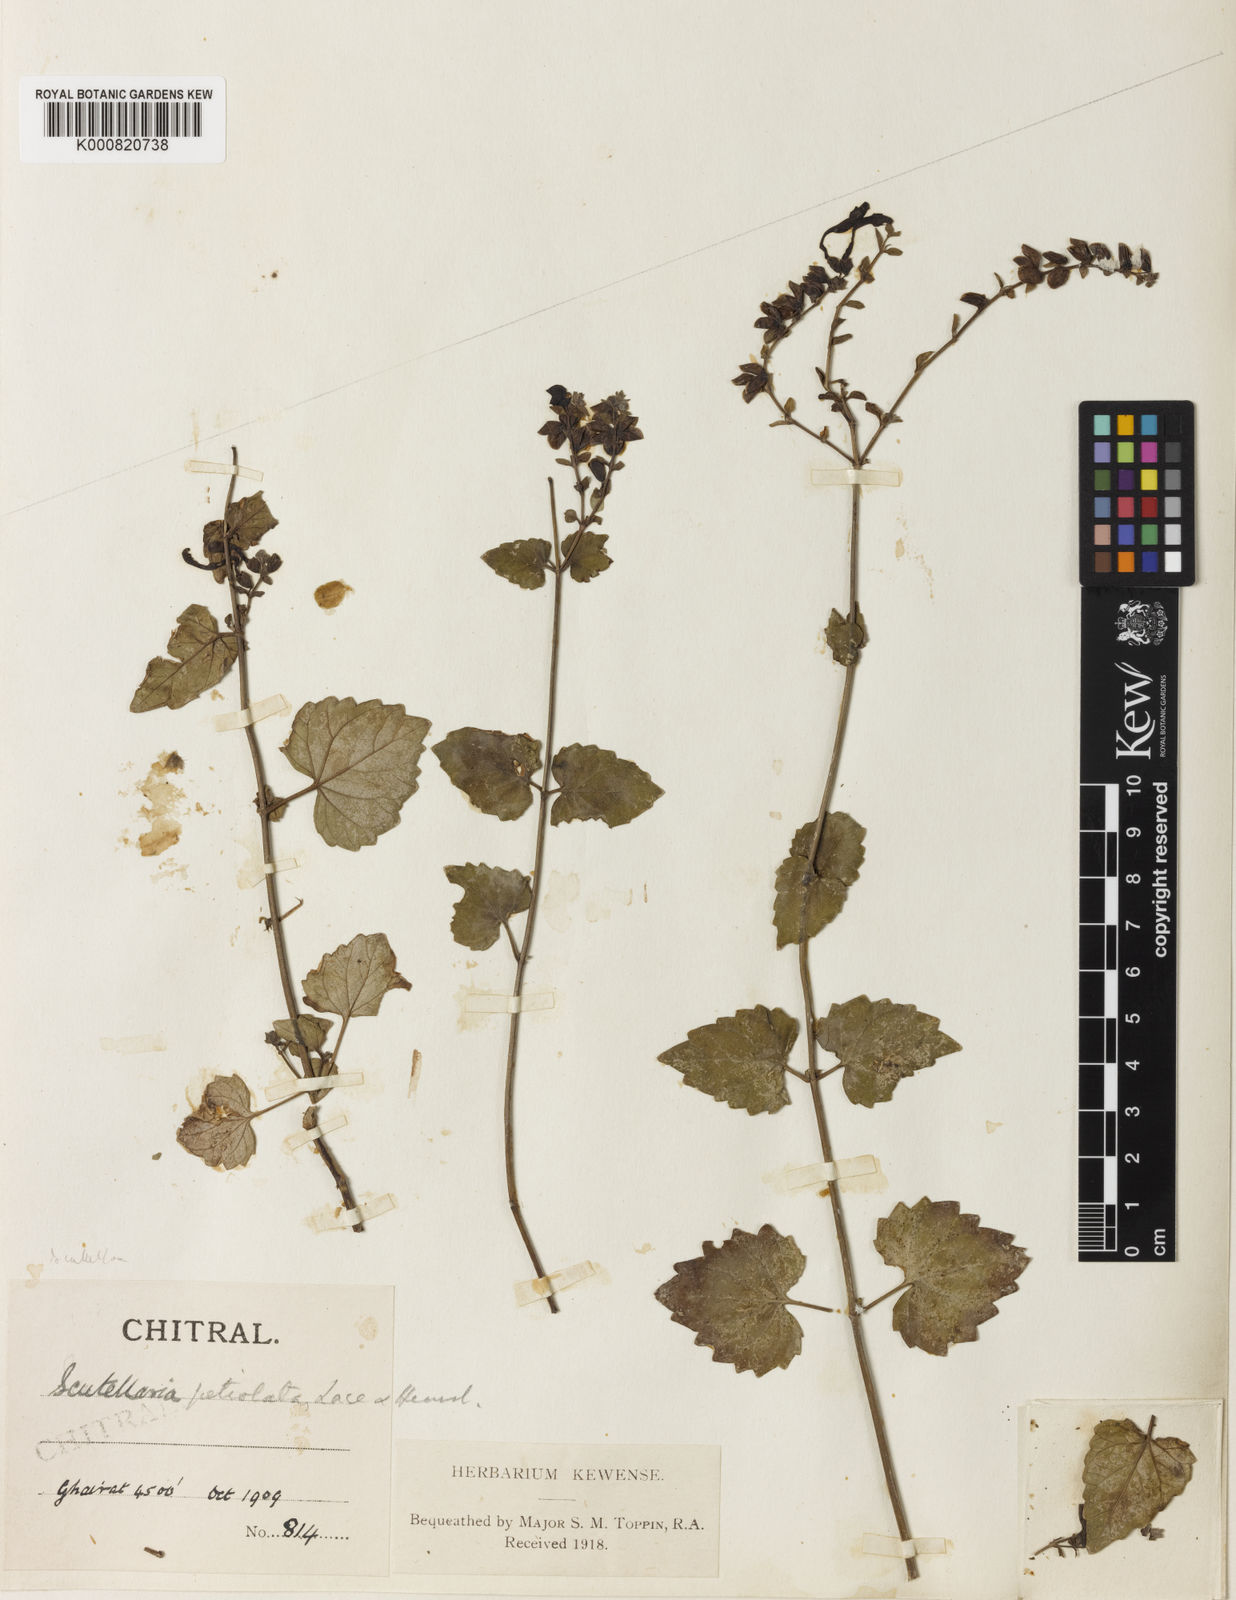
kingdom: Plantae
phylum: Tracheophyta
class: Magnoliopsida
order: Lamiales
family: Lamiaceae
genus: Scutellaria
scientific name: Scutellaria petiolata
